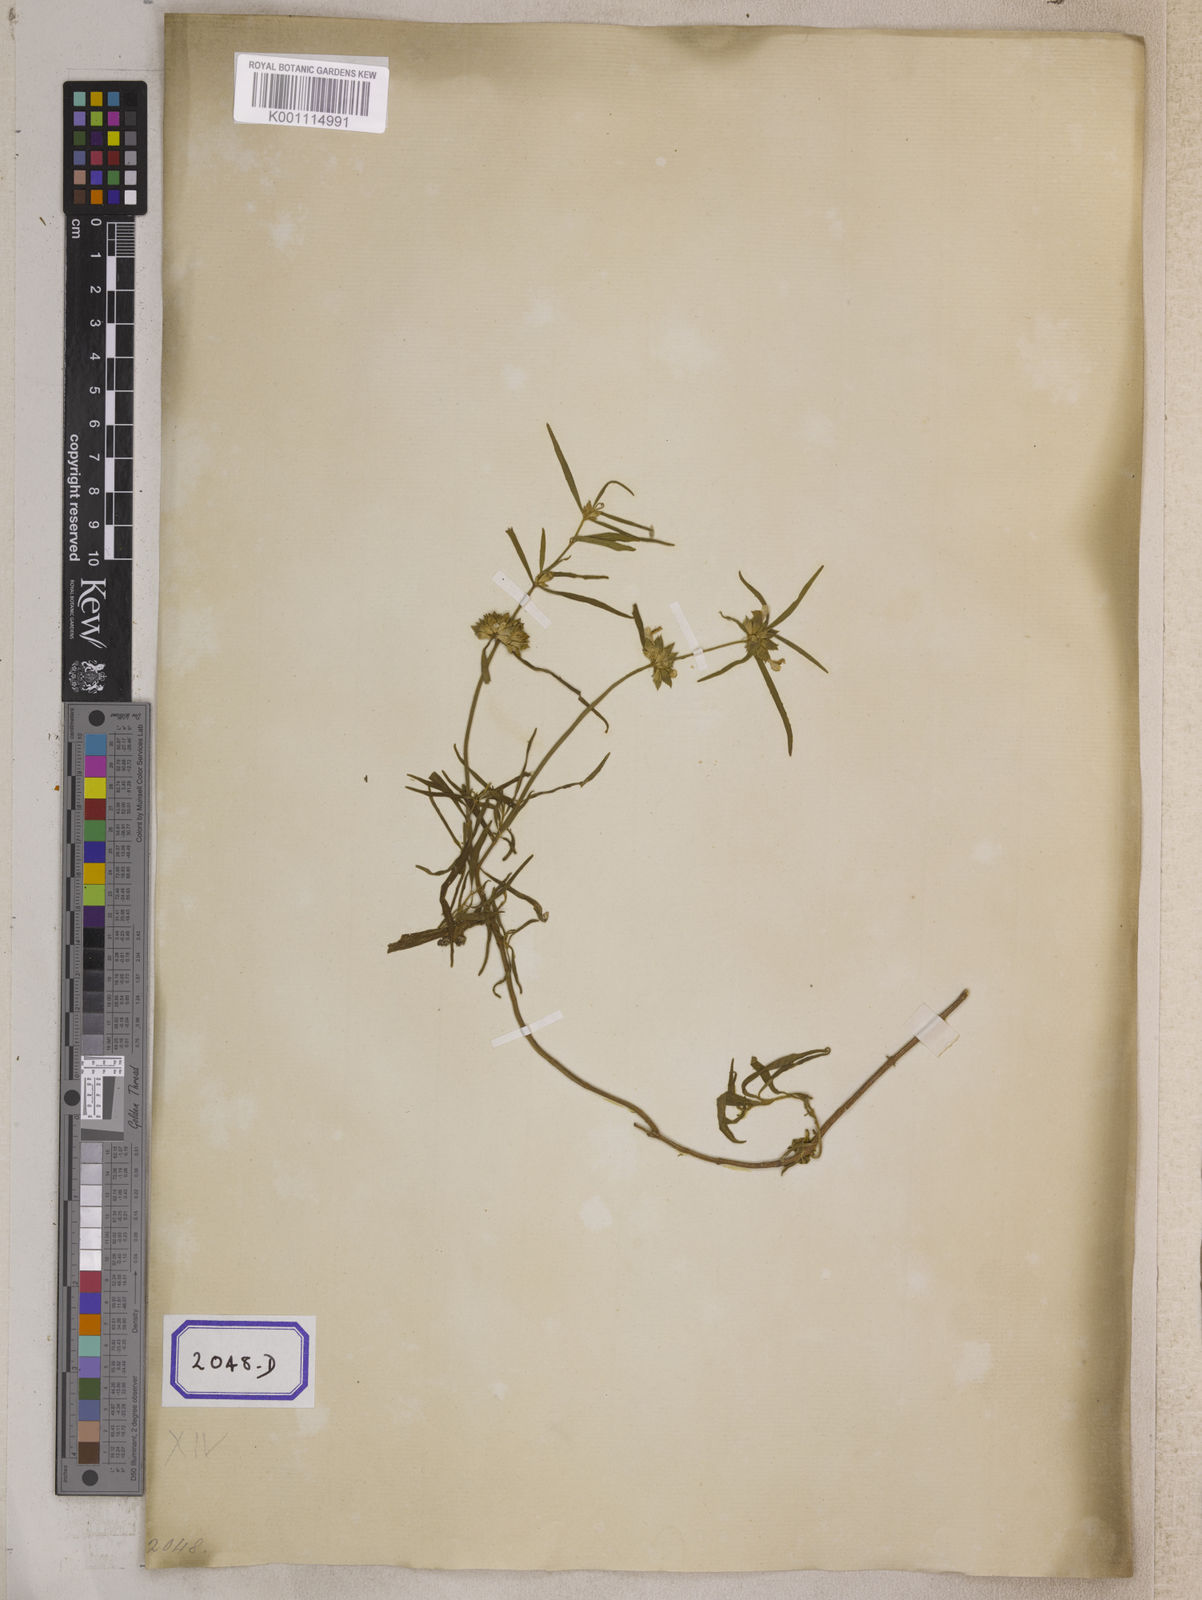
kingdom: Plantae
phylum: Tracheophyta
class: Magnoliopsida
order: Lamiales
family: Lamiaceae
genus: Leucas
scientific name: Leucas lavandulifolia
